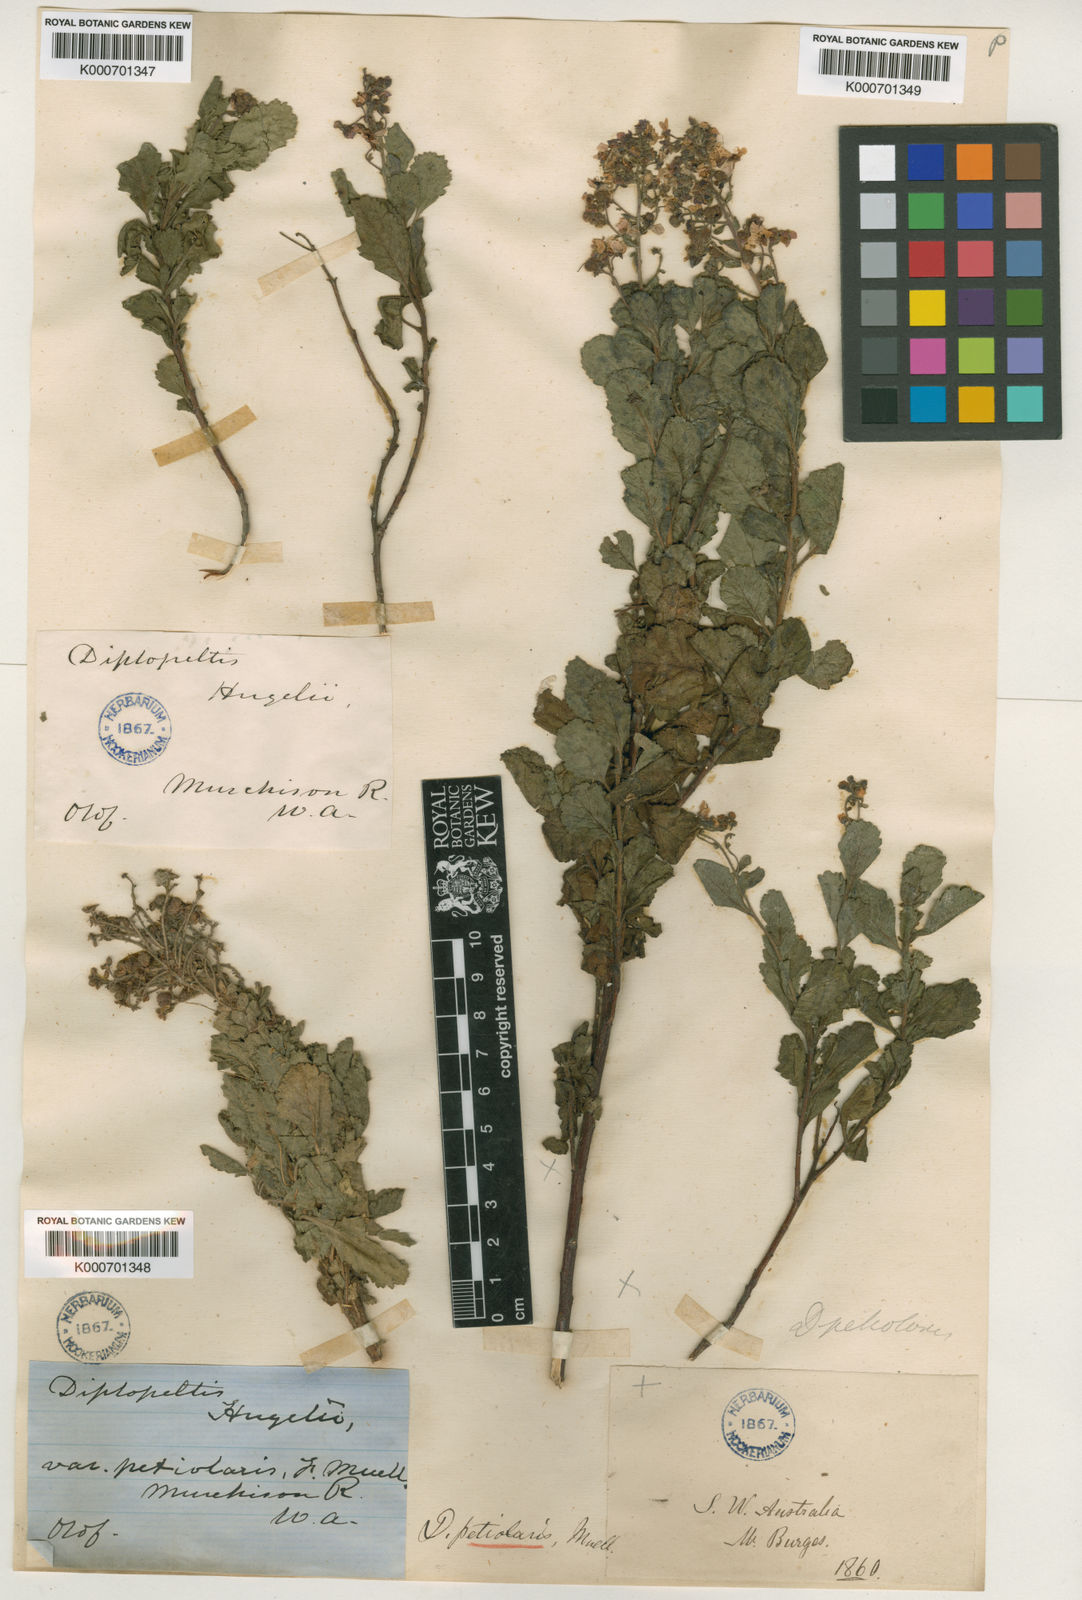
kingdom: Plantae
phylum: Tracheophyta
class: Magnoliopsida
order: Sapindales
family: Sapindaceae
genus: Diplopeltis
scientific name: Diplopeltis petiolaris
